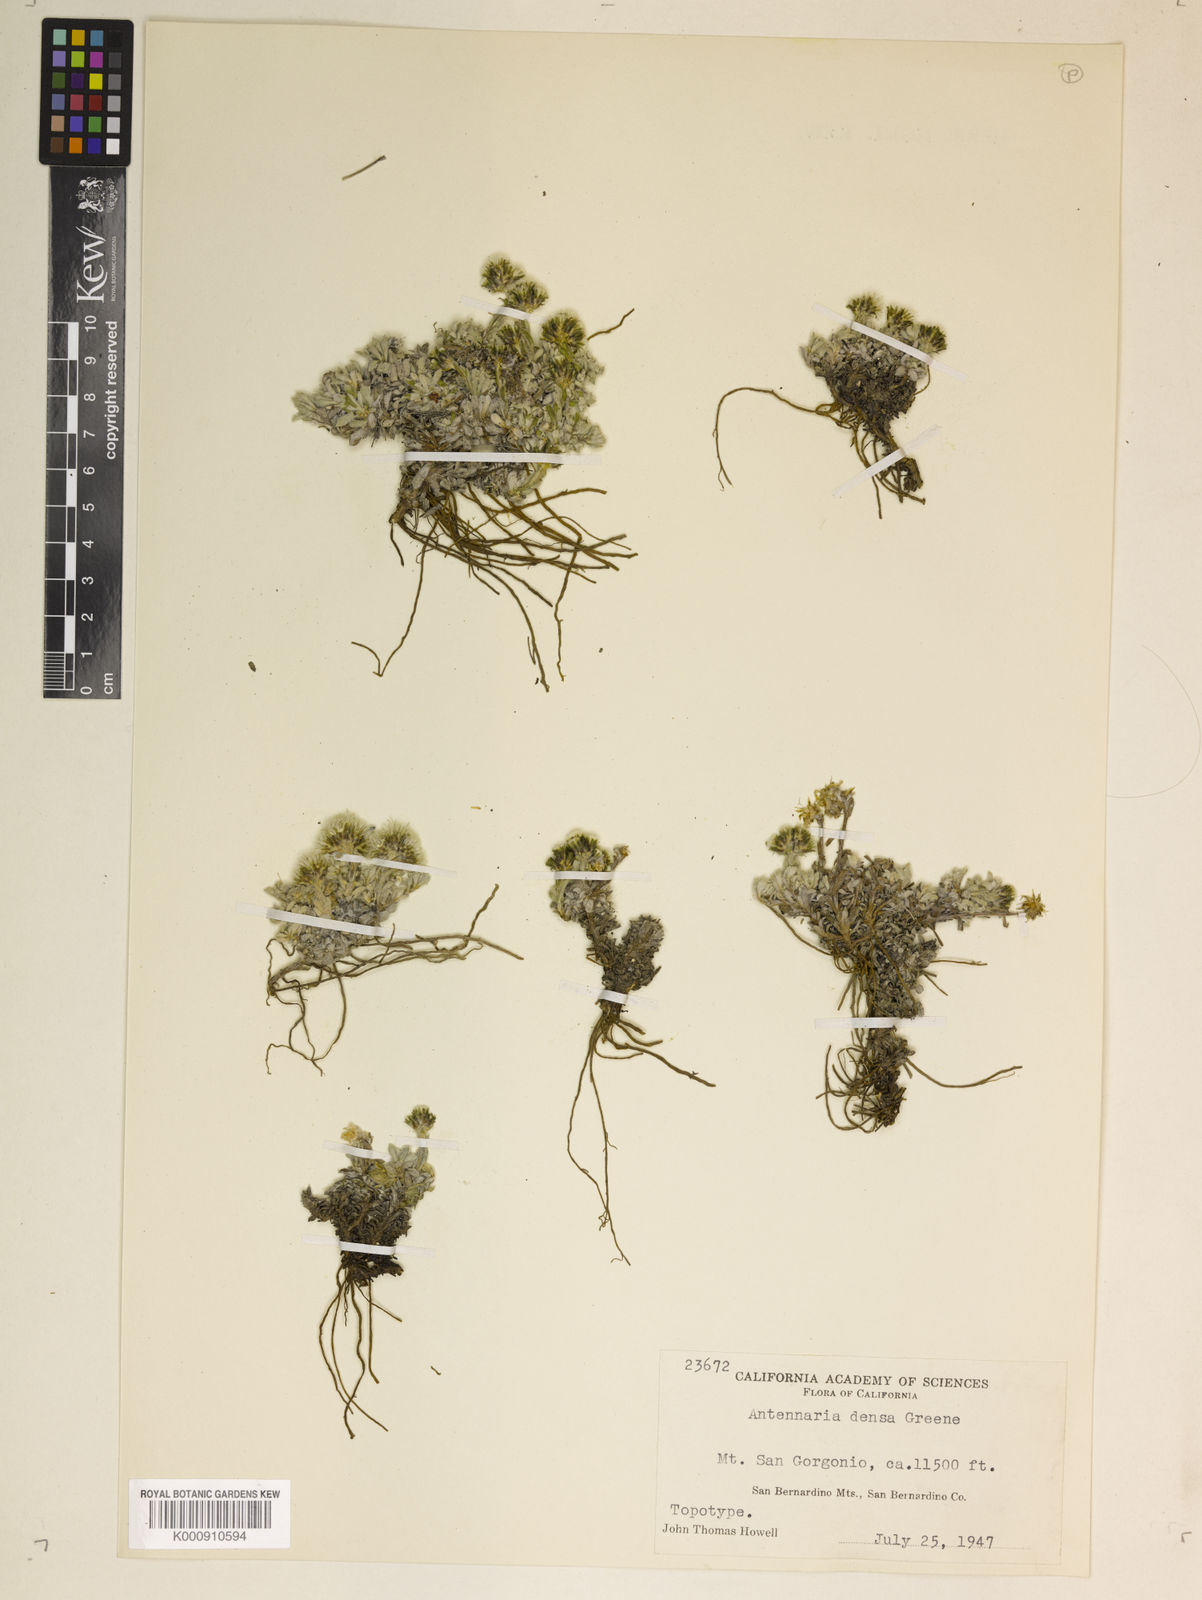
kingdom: Plantae
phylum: Tracheophyta
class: Magnoliopsida
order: Asterales
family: Asteraceae
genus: Antennaria
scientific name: Antennaria media
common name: Rocky mountain pussytoes
